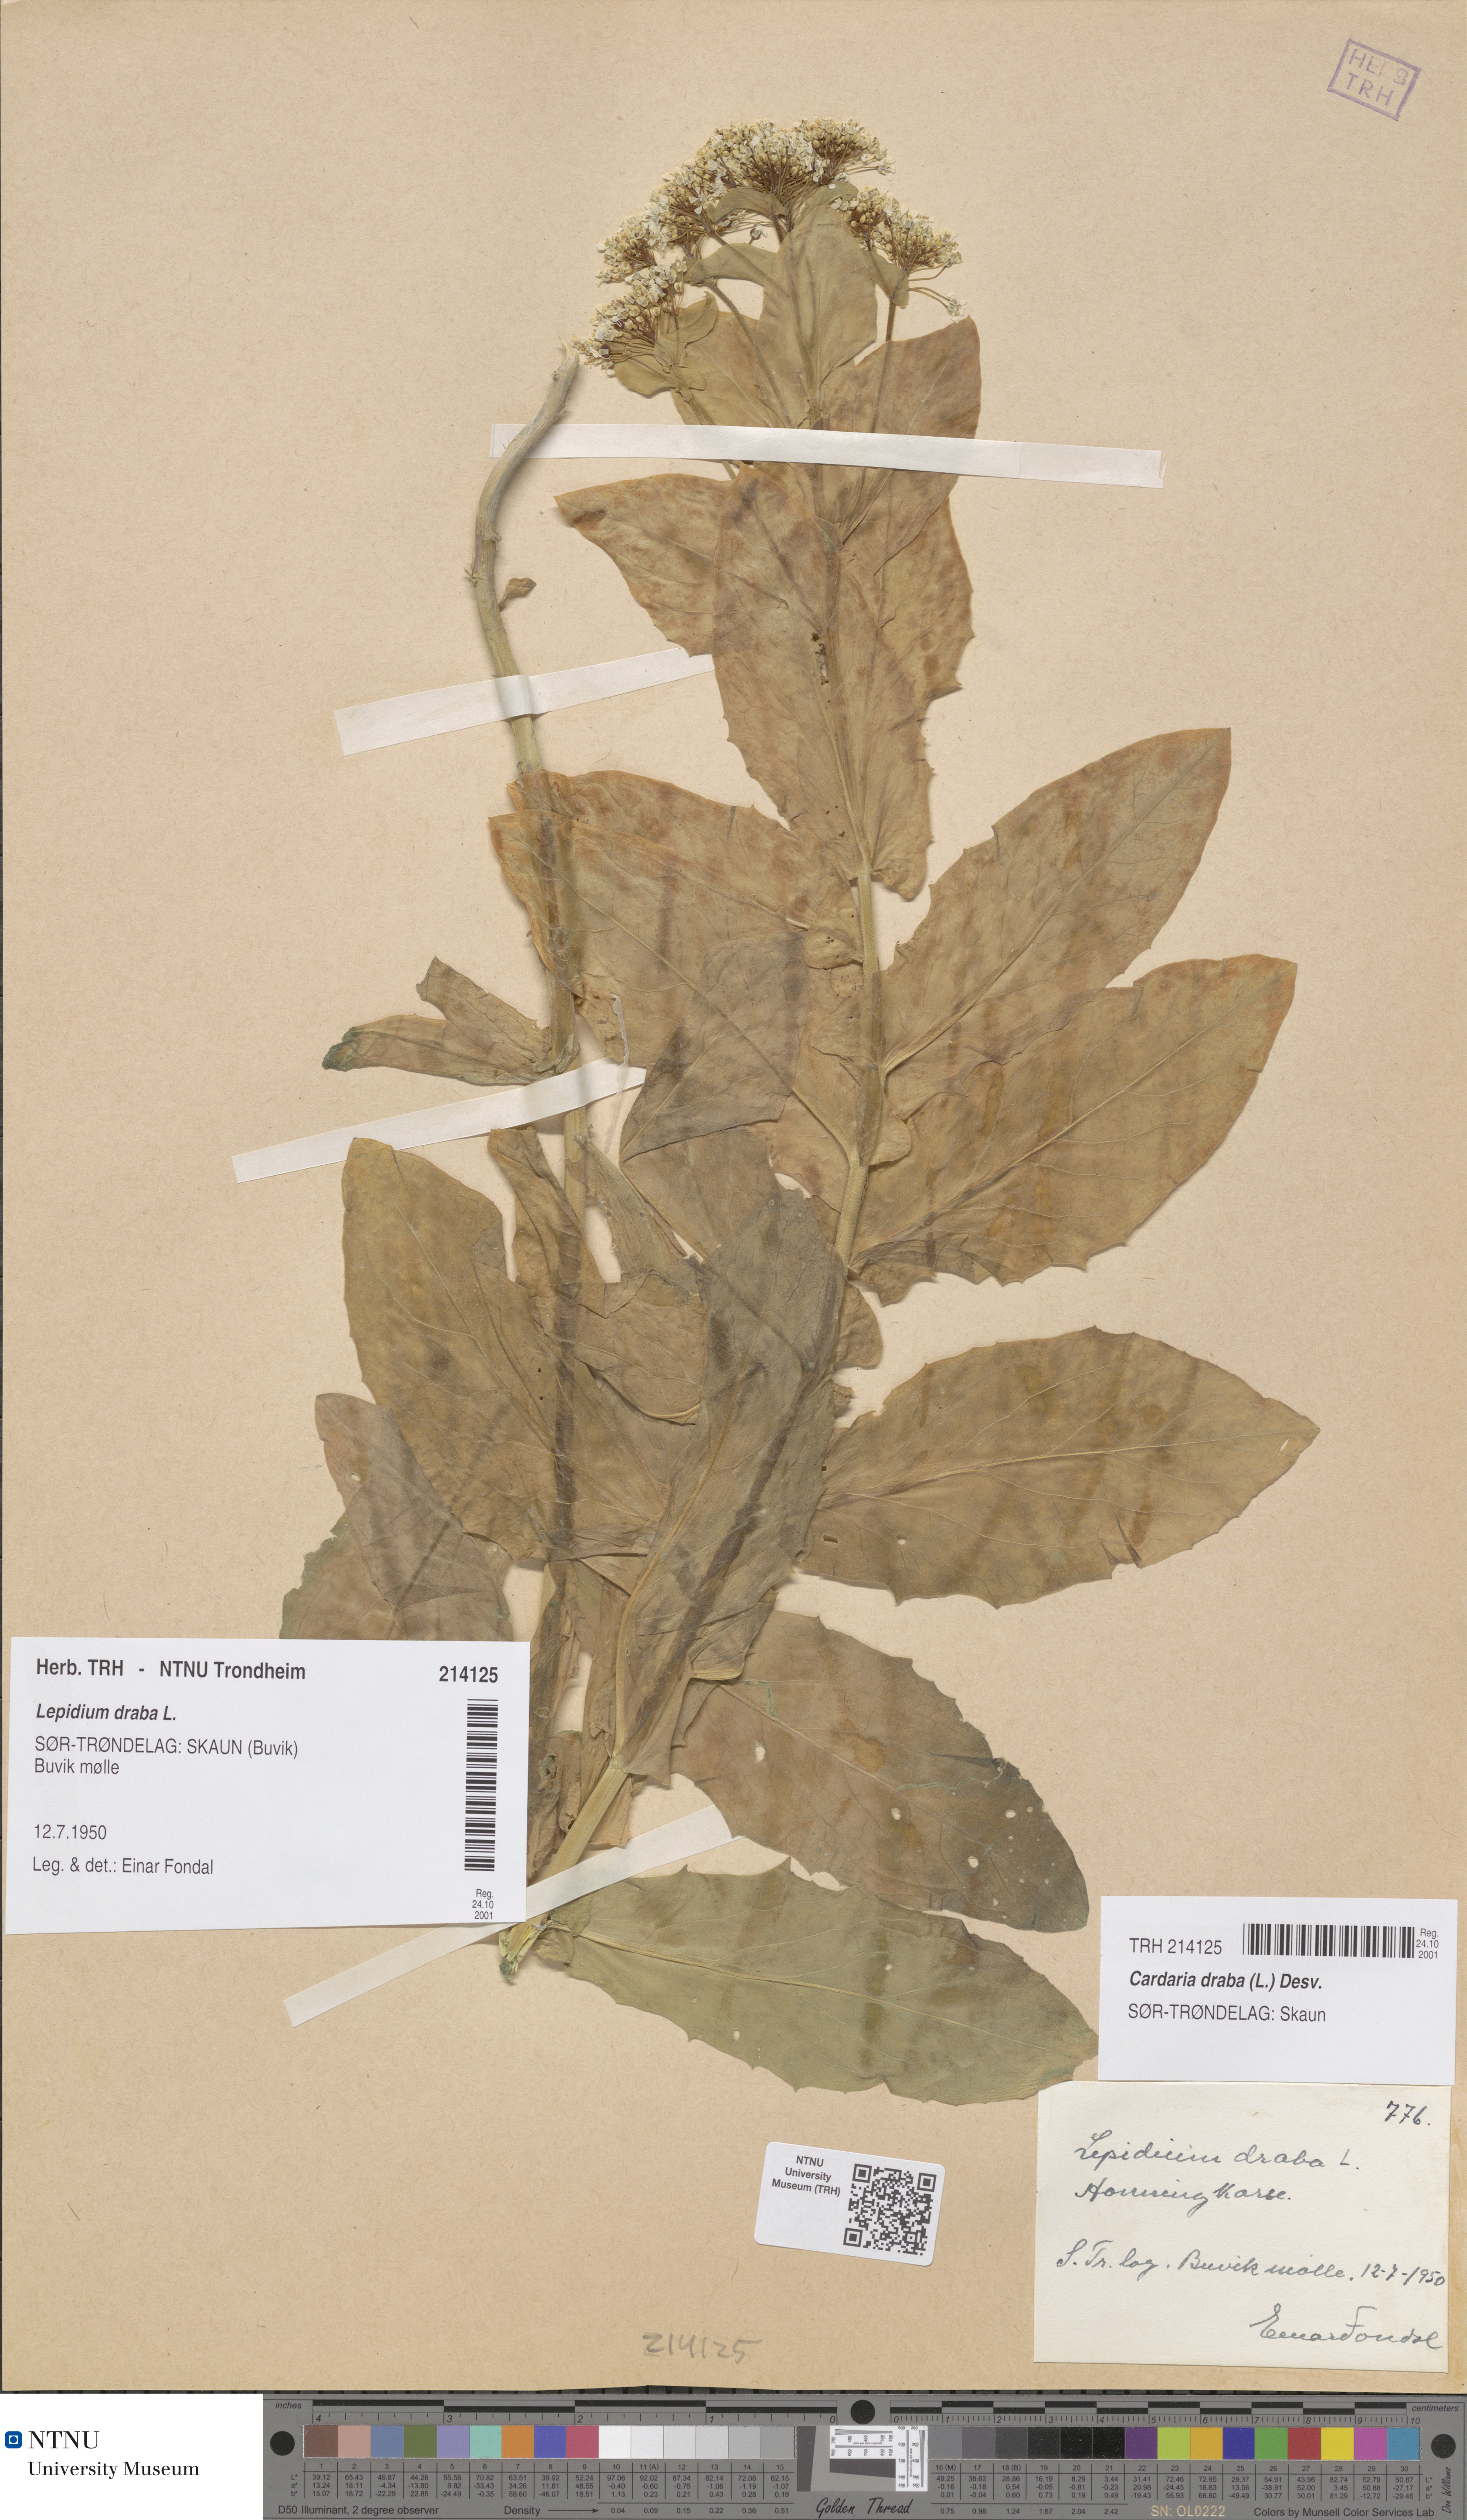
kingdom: Plantae
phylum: Tracheophyta
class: Magnoliopsida
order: Brassicales
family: Brassicaceae
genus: Lepidium
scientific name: Lepidium draba
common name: Hoary cress
